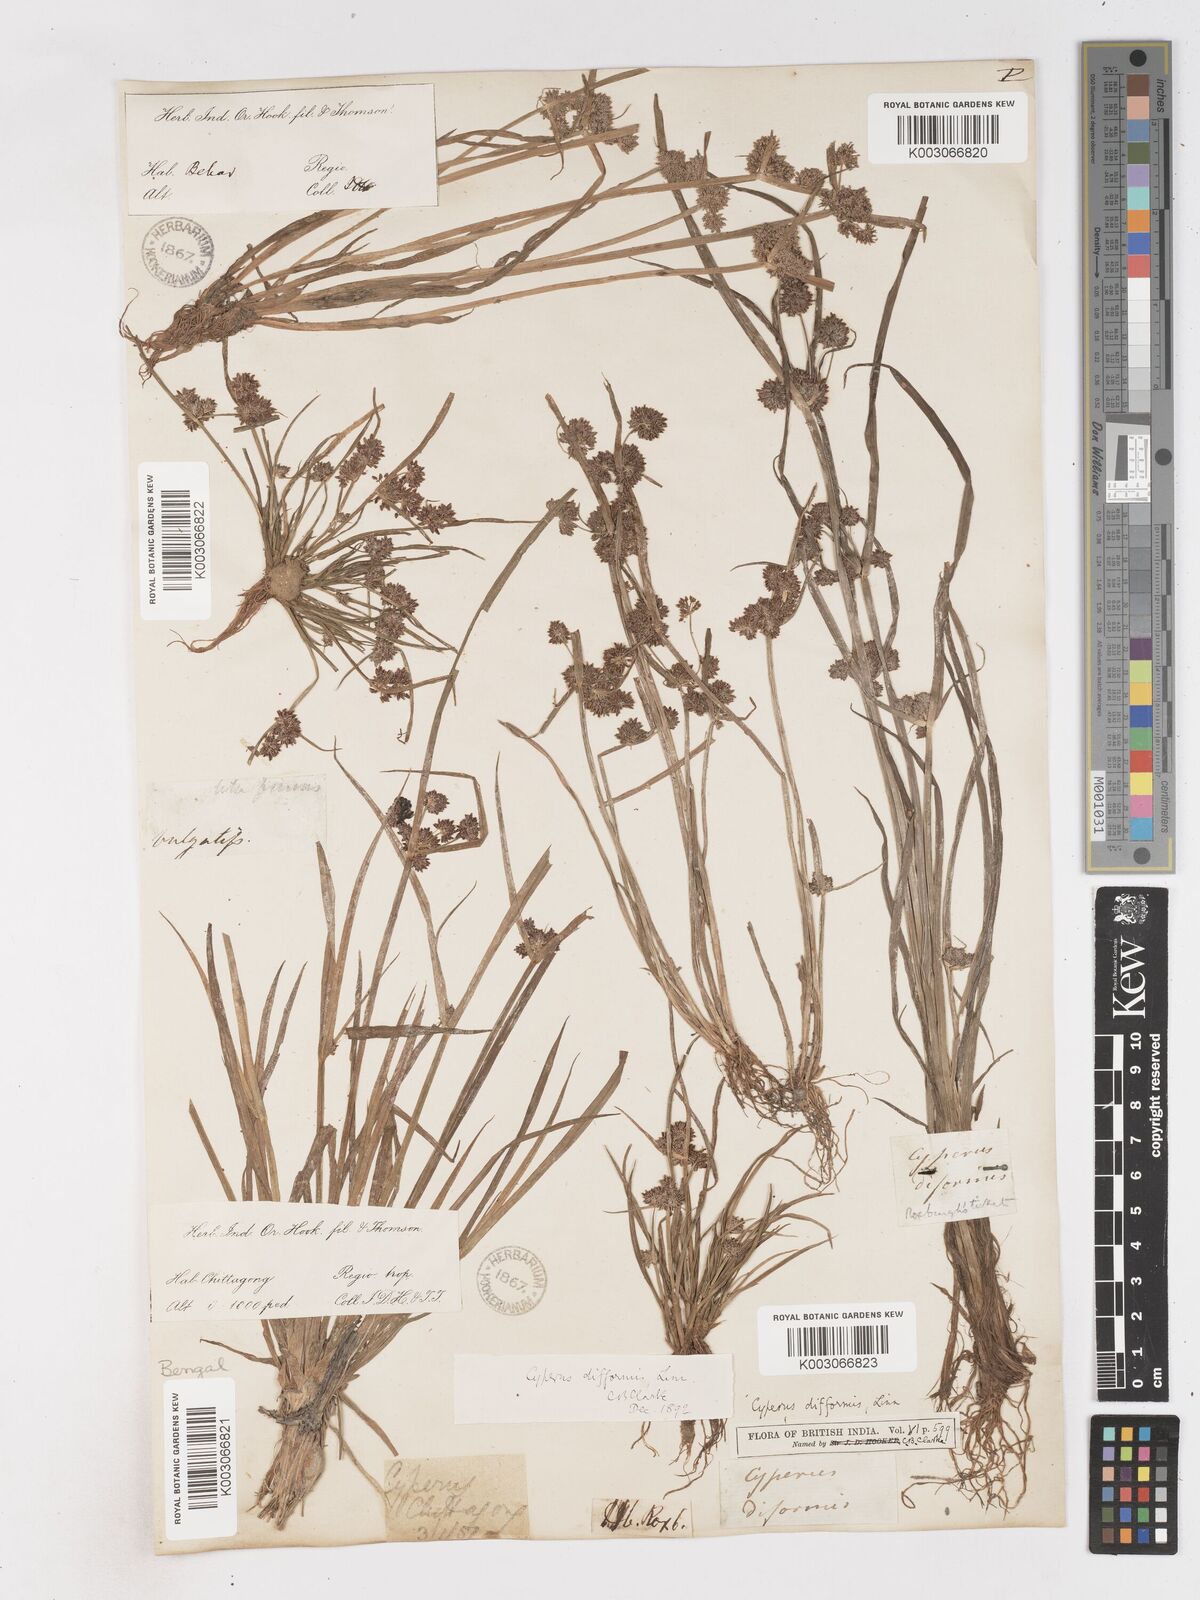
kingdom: Plantae
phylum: Tracheophyta
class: Liliopsida
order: Poales
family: Cyperaceae
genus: Cyperus
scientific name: Cyperus difformis
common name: Variable flatsedge
